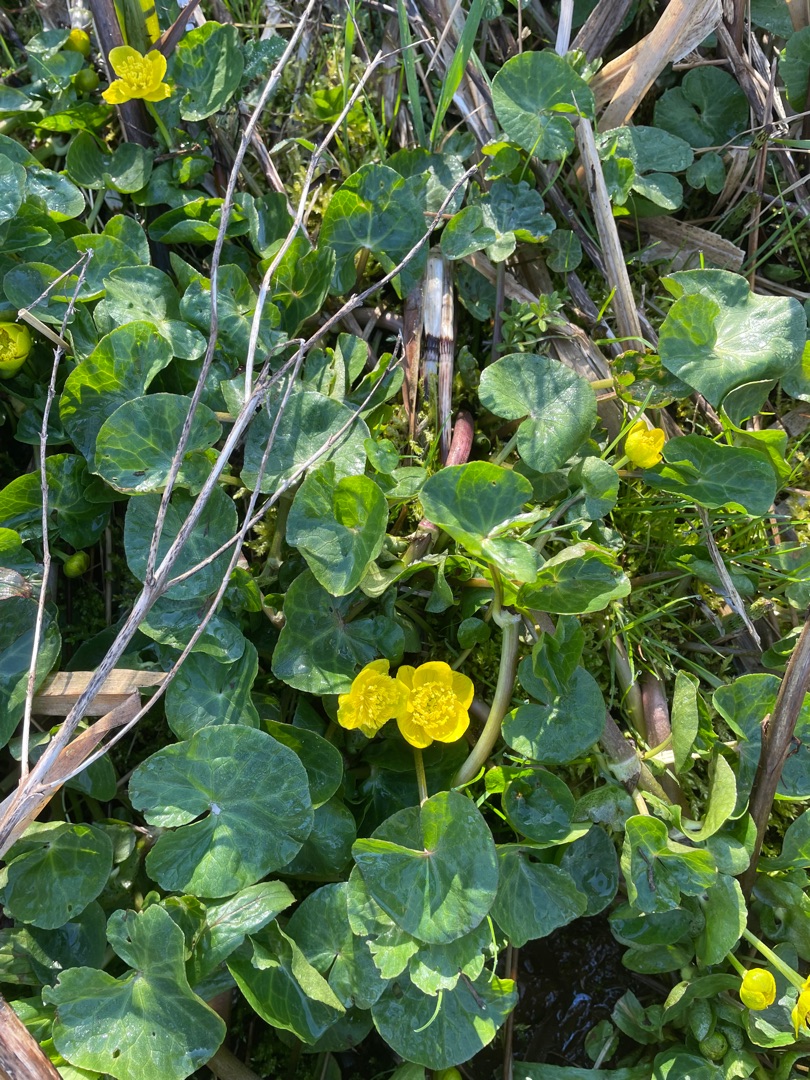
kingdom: Plantae
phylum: Tracheophyta
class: Magnoliopsida
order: Ranunculales
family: Ranunculaceae
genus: Caltha
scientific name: Caltha palustris
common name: Eng-kabbeleje
